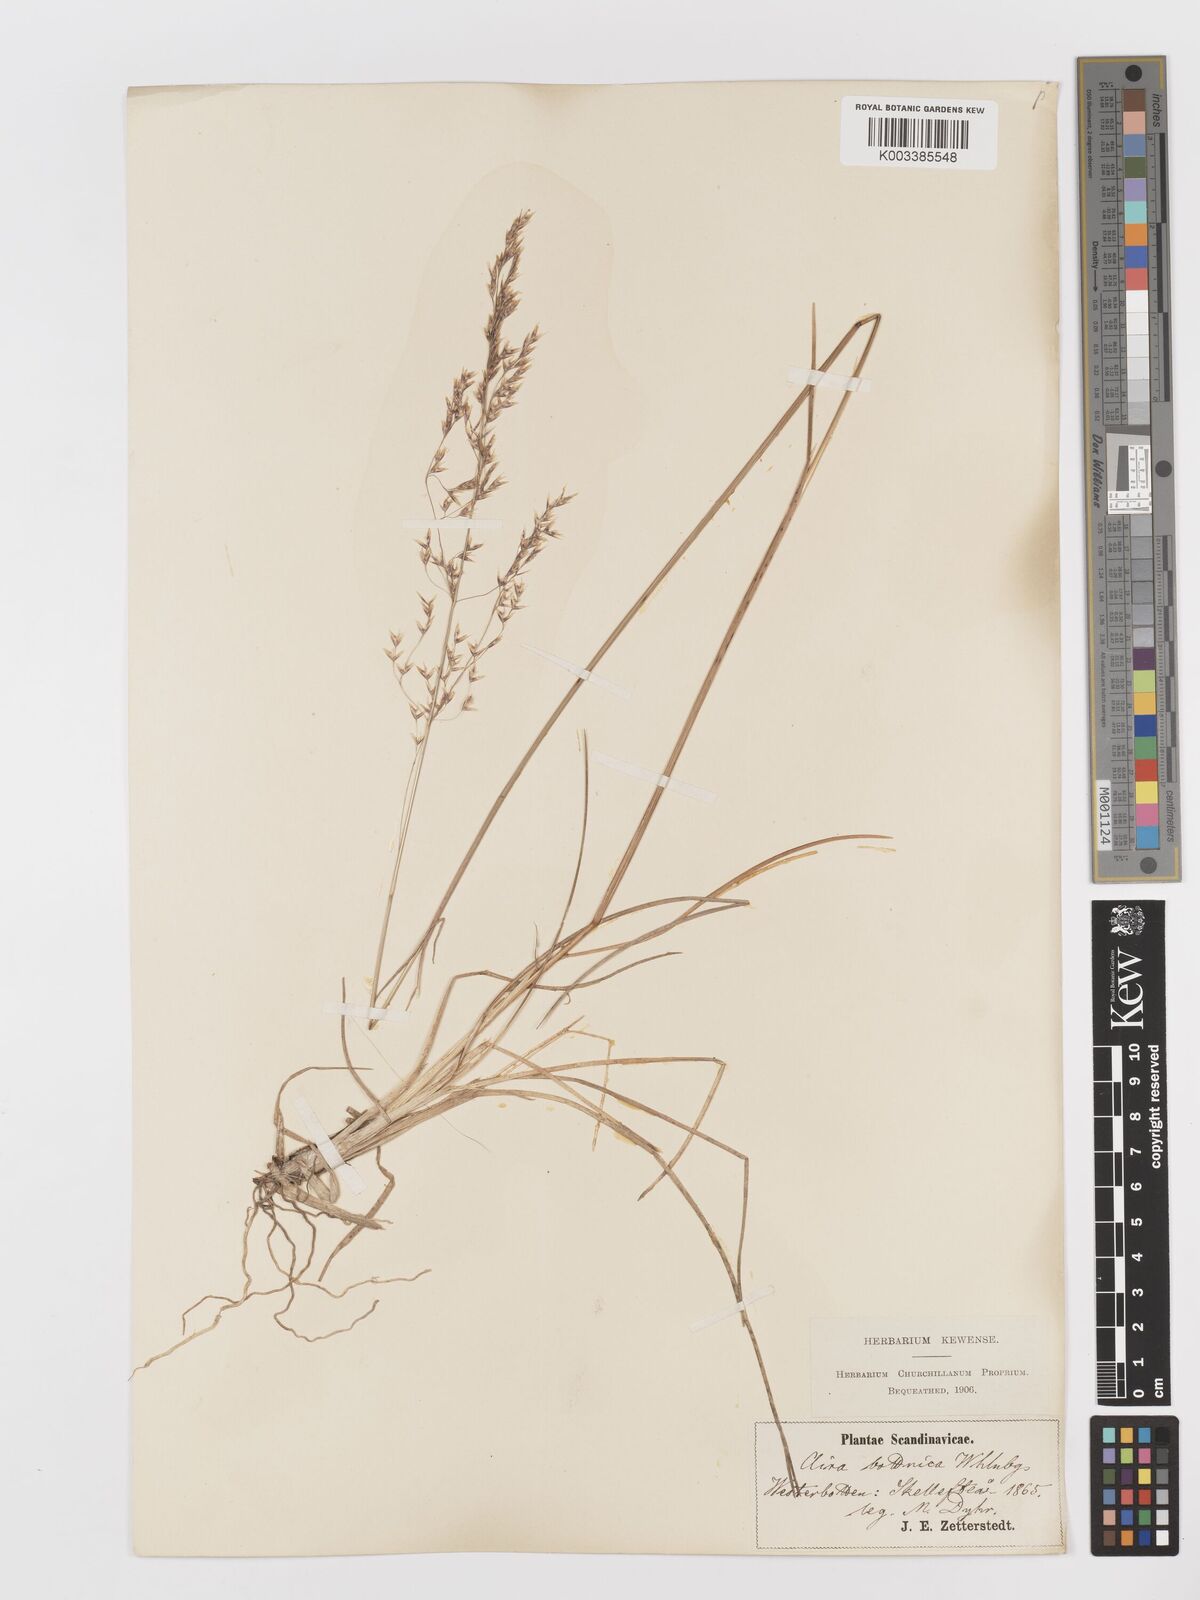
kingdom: Plantae
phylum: Tracheophyta
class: Liliopsida
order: Poales
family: Poaceae
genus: Deschampsia
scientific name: Deschampsia cespitosa
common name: Tufted hair-grass
